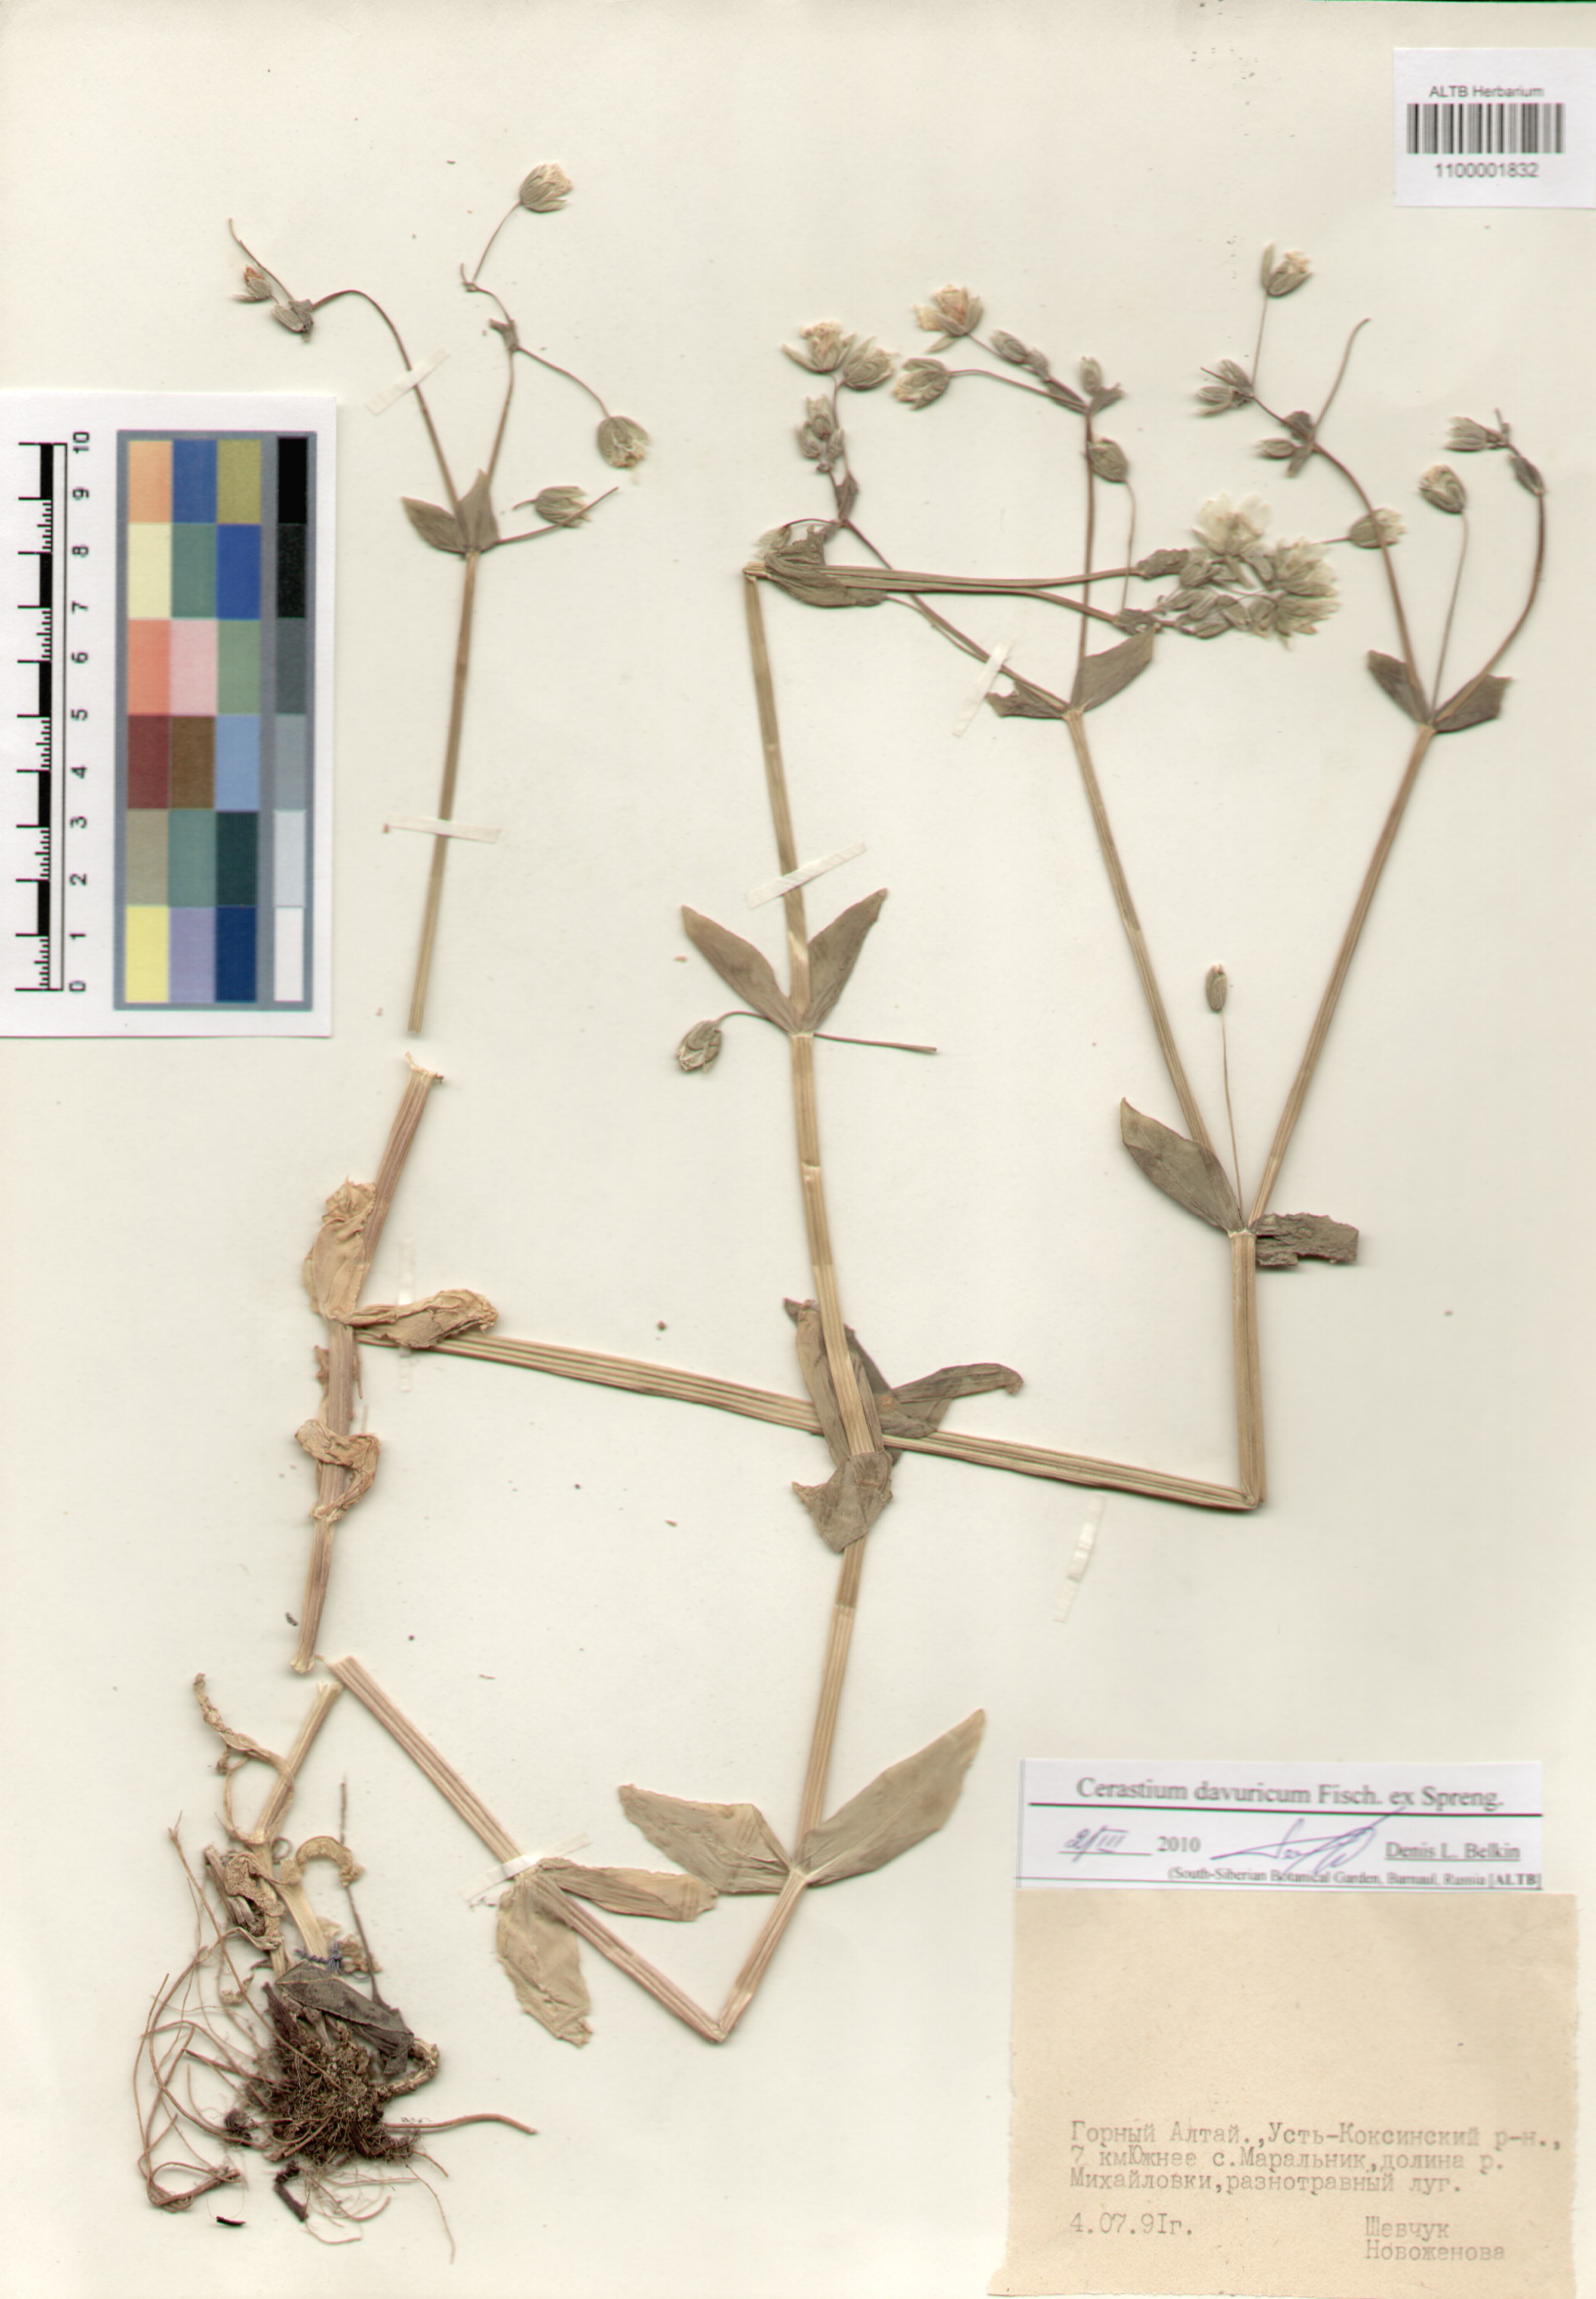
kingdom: Plantae
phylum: Tracheophyta
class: Magnoliopsida
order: Caryophyllales
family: Caryophyllaceae
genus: Dichodon
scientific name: Dichodon davuricum
